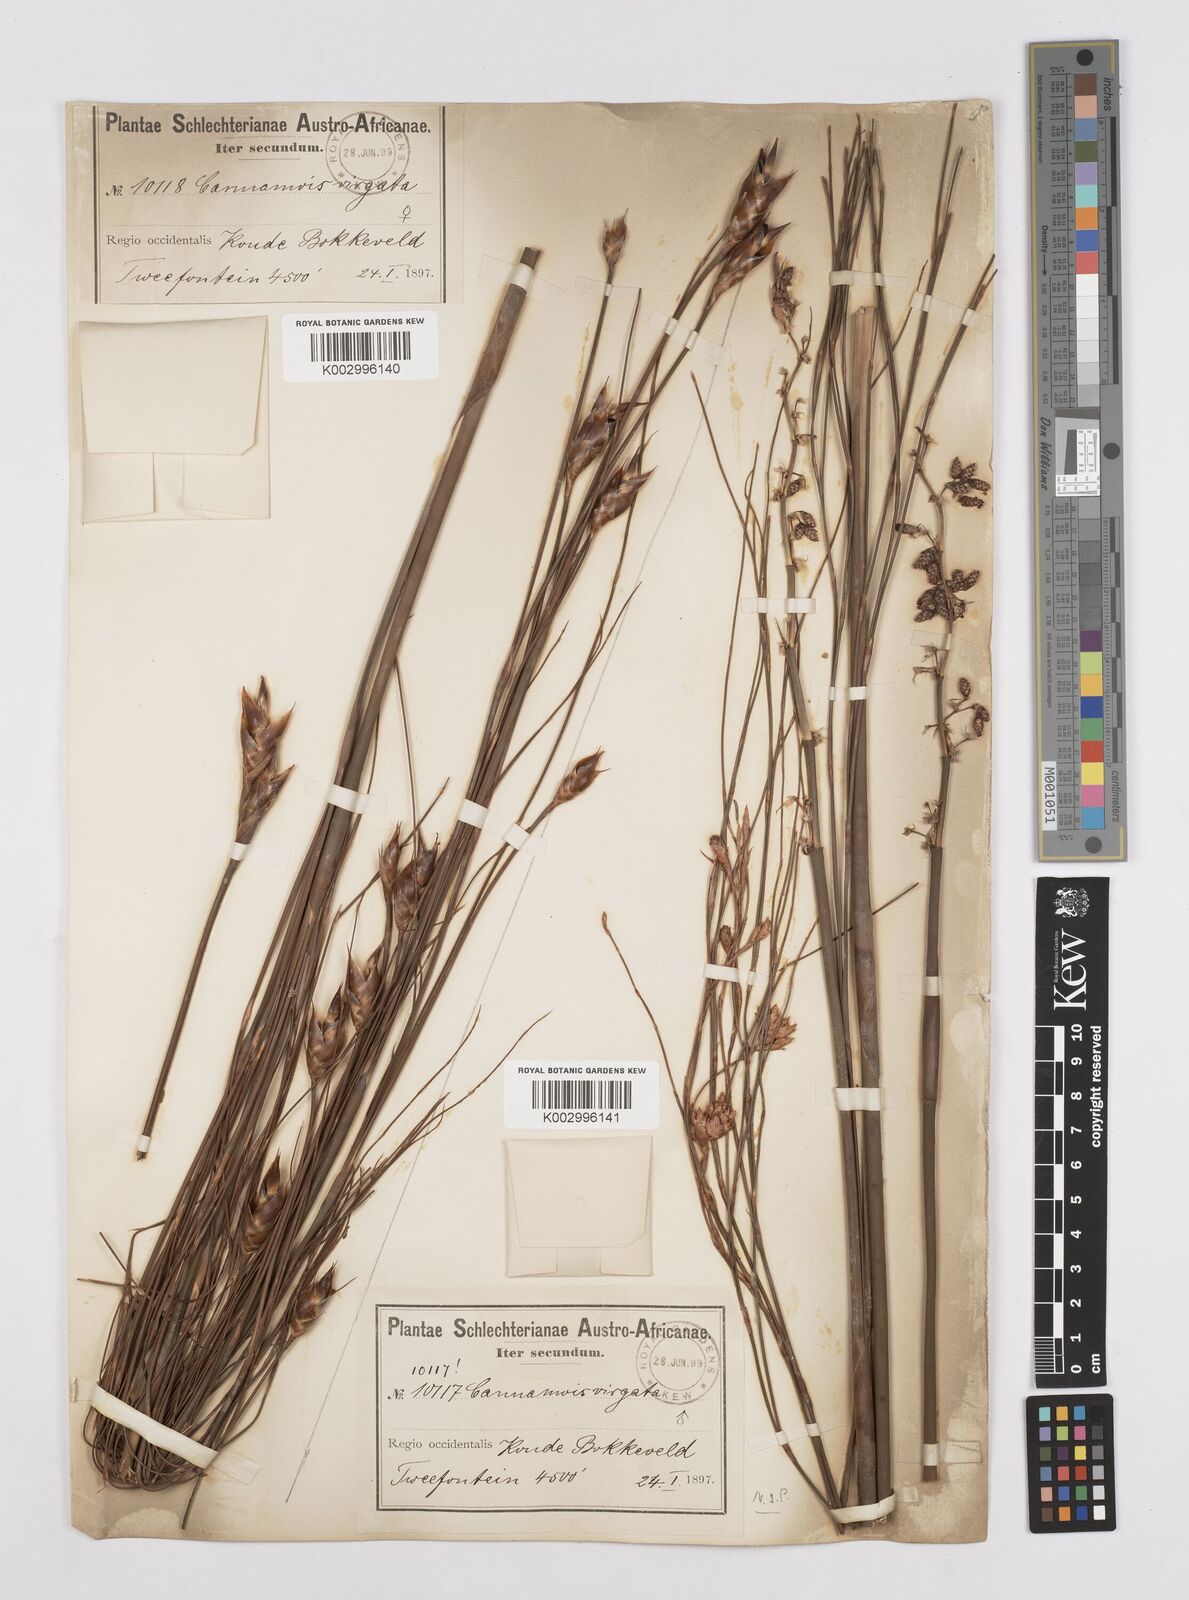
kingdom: Plantae
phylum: Tracheophyta
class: Liliopsida
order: Poales
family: Restionaceae
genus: Cannomois
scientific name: Cannomois virgata
